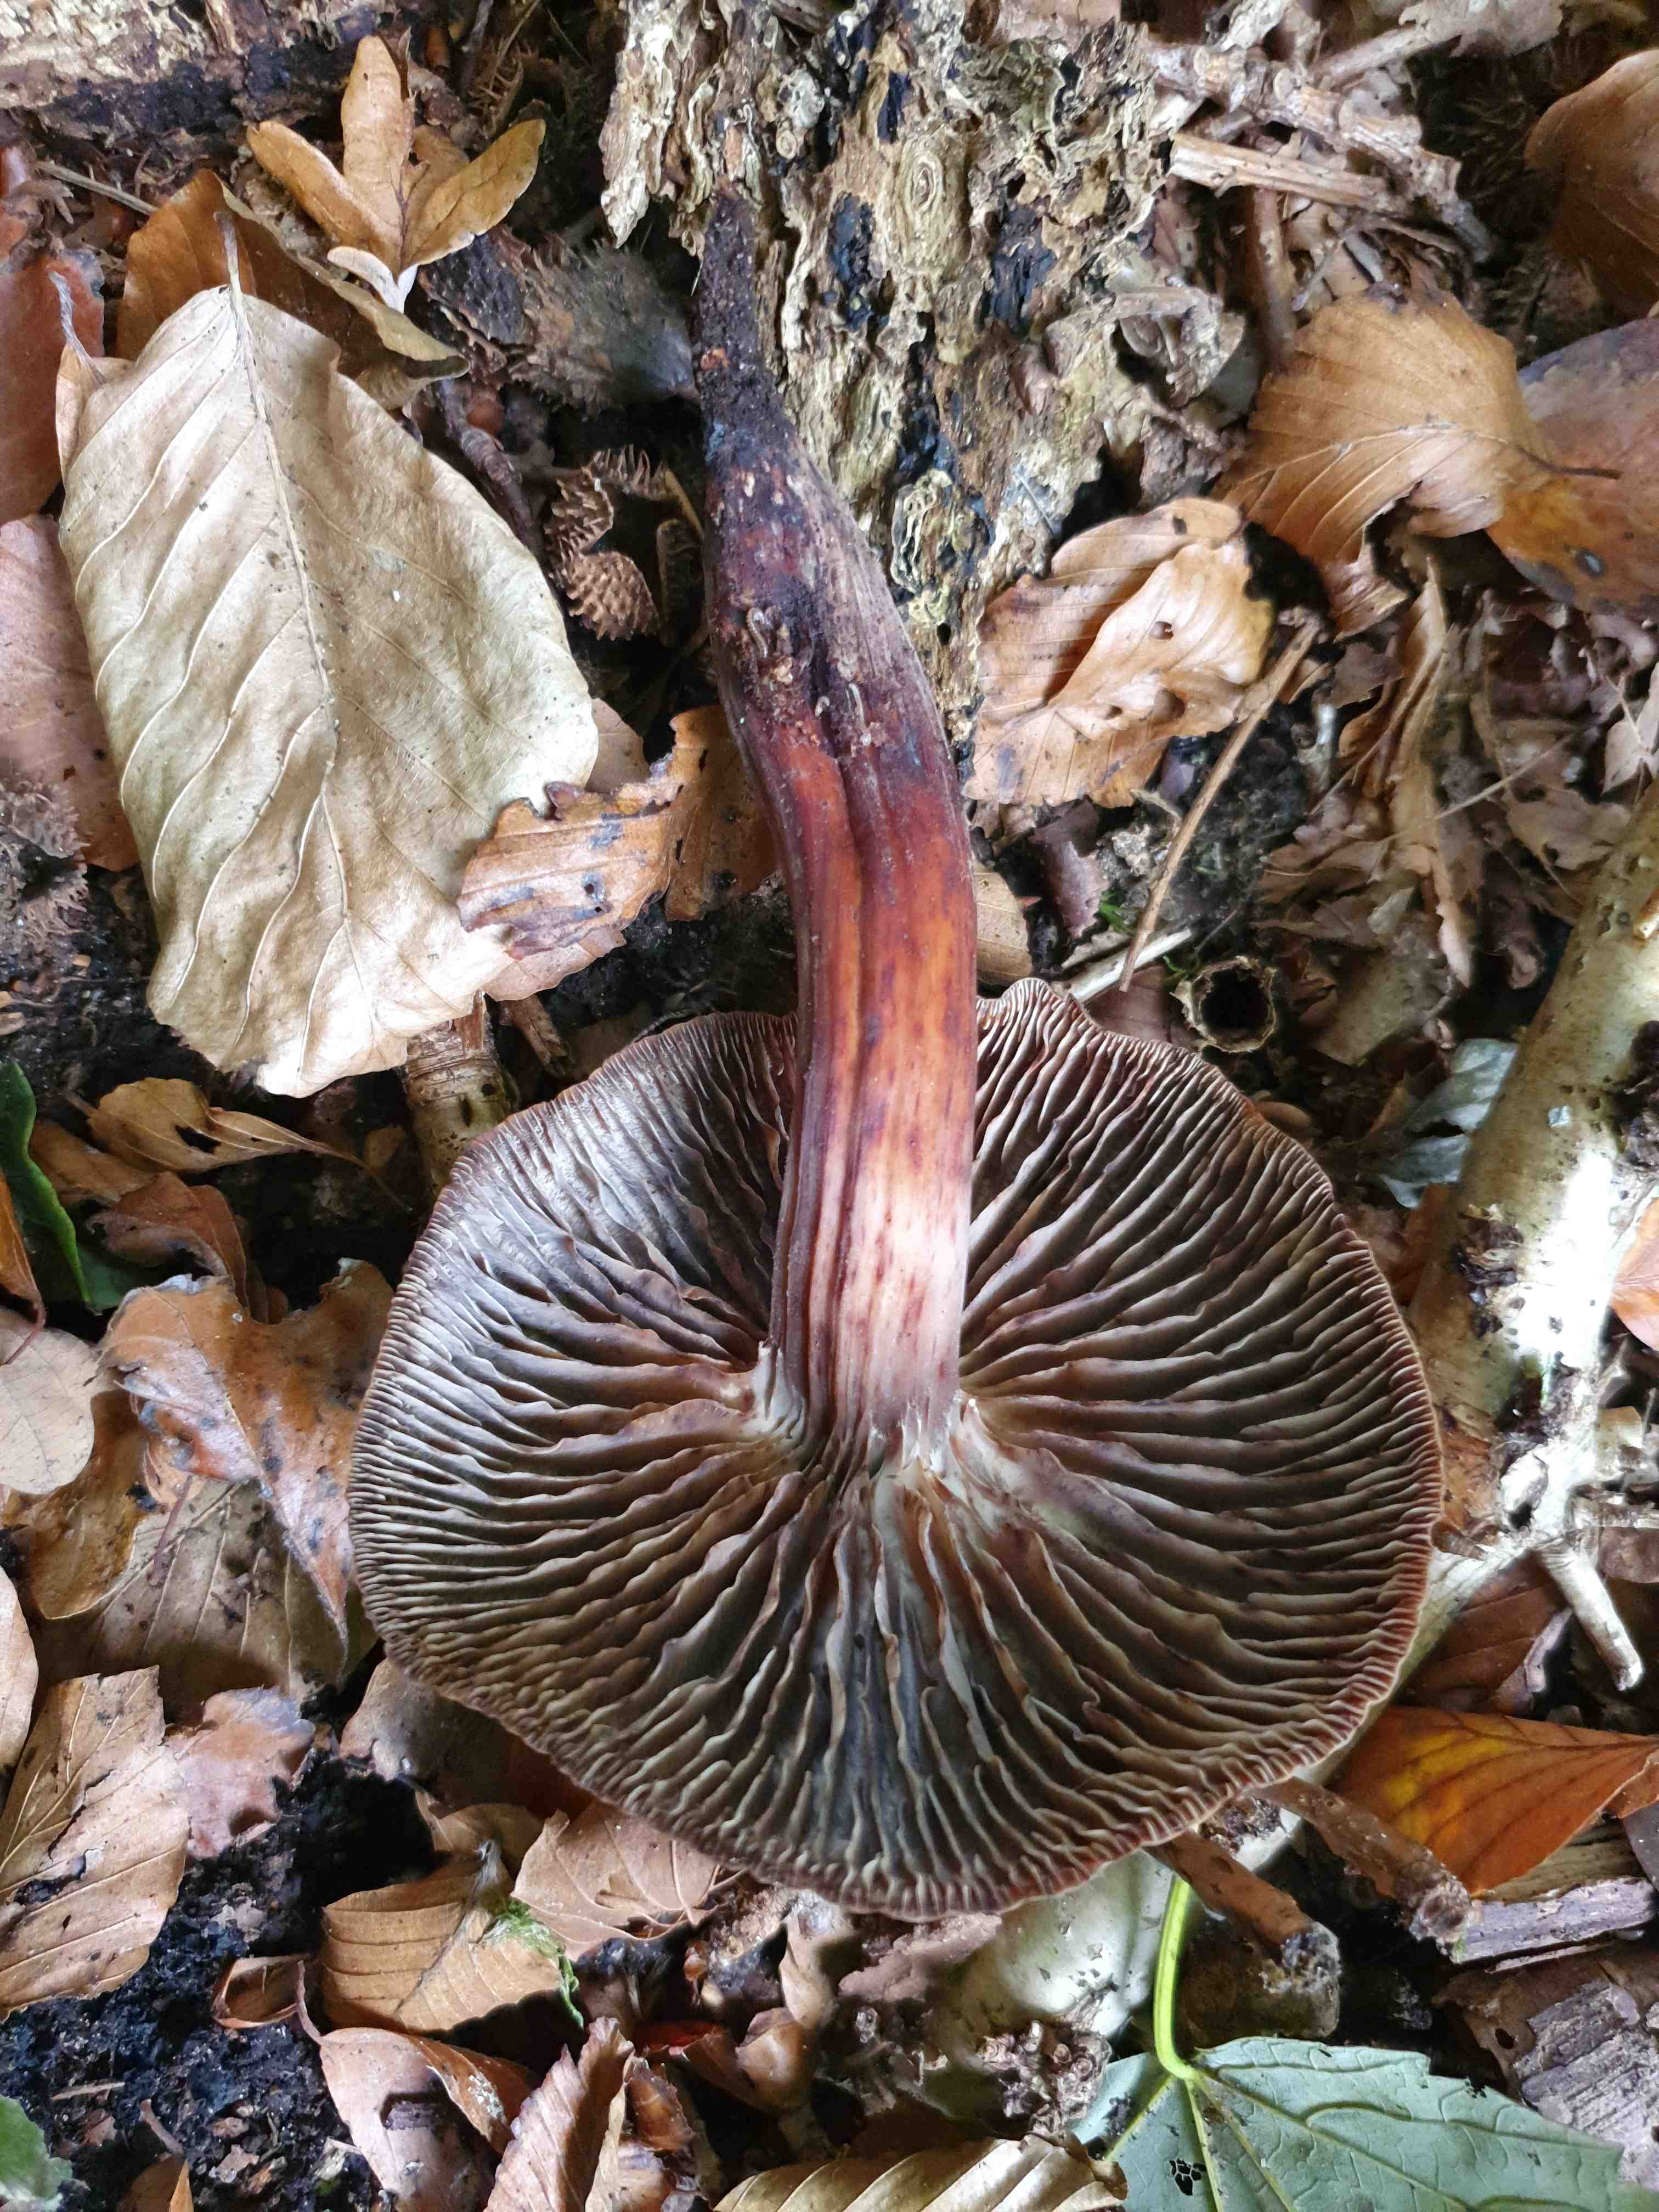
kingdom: Fungi
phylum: Basidiomycota
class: Agaricomycetes
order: Agaricales
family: Omphalotaceae
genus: Gymnopus
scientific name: Gymnopus fusipes
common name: tenstokket fladhat
